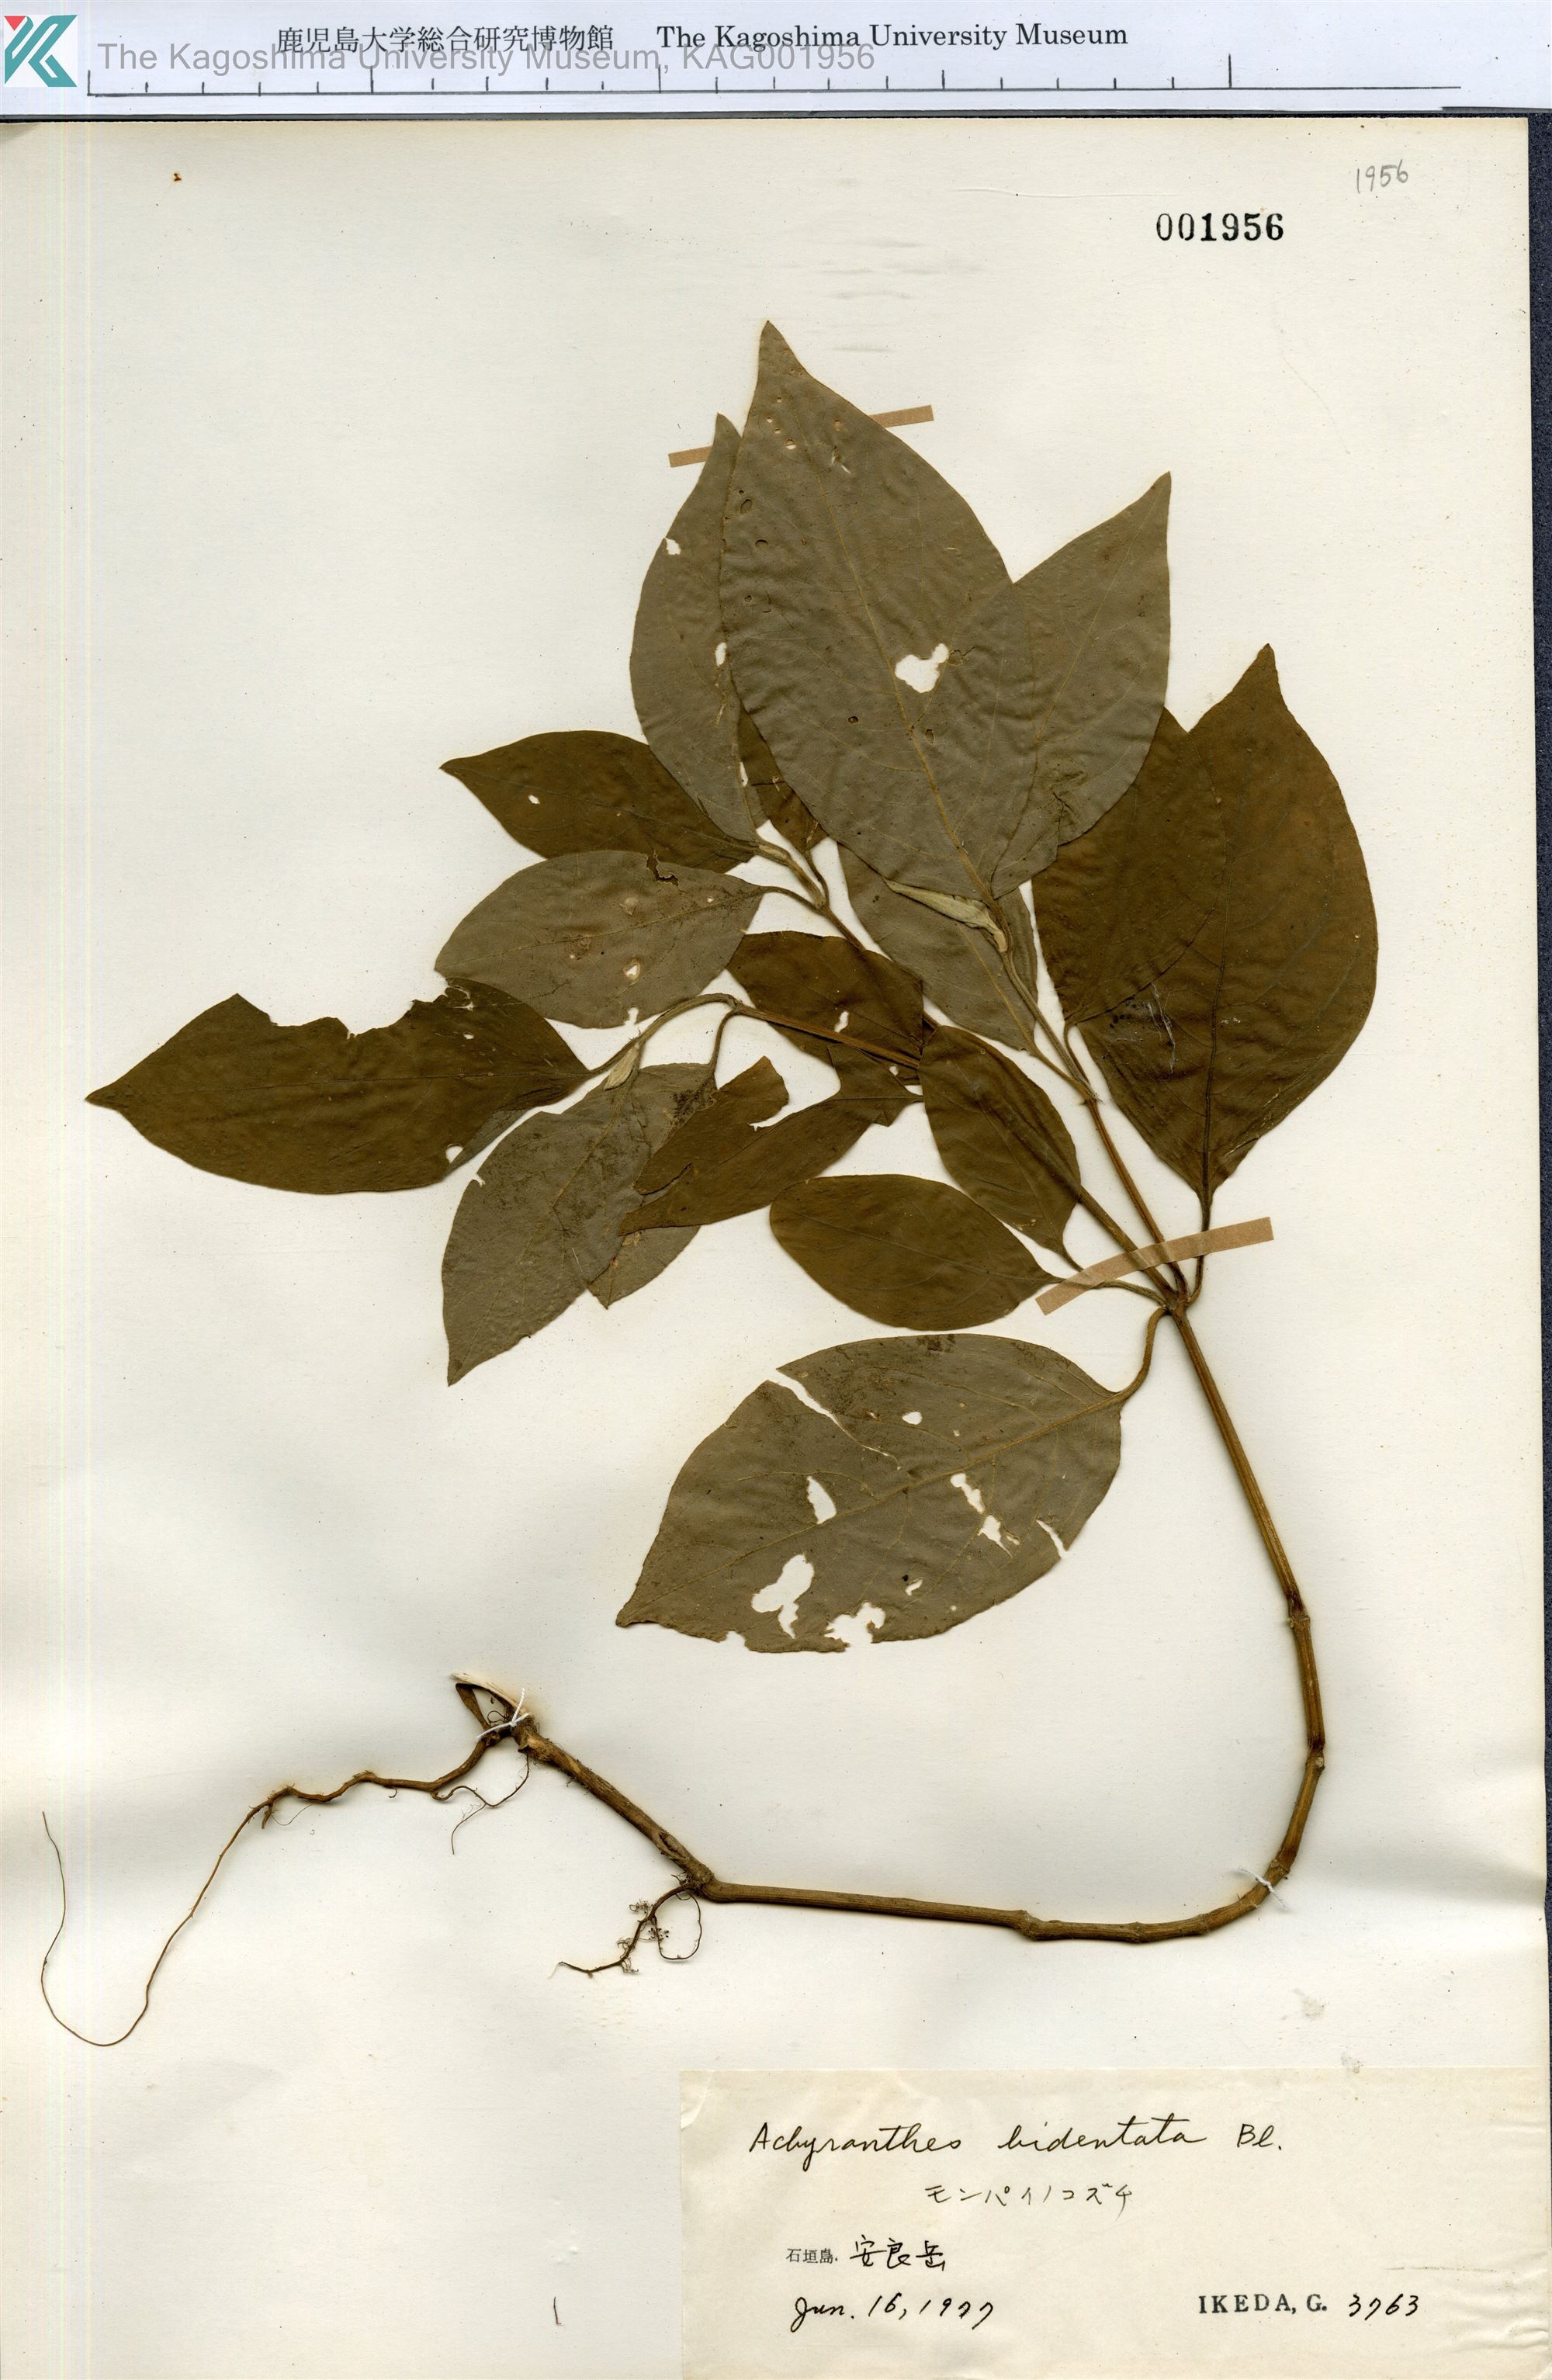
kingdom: Plantae
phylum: Tracheophyta
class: Magnoliopsida
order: Caryophyllales
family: Amaranthaceae
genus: Achyranthes
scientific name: Achyranthes bidentata
